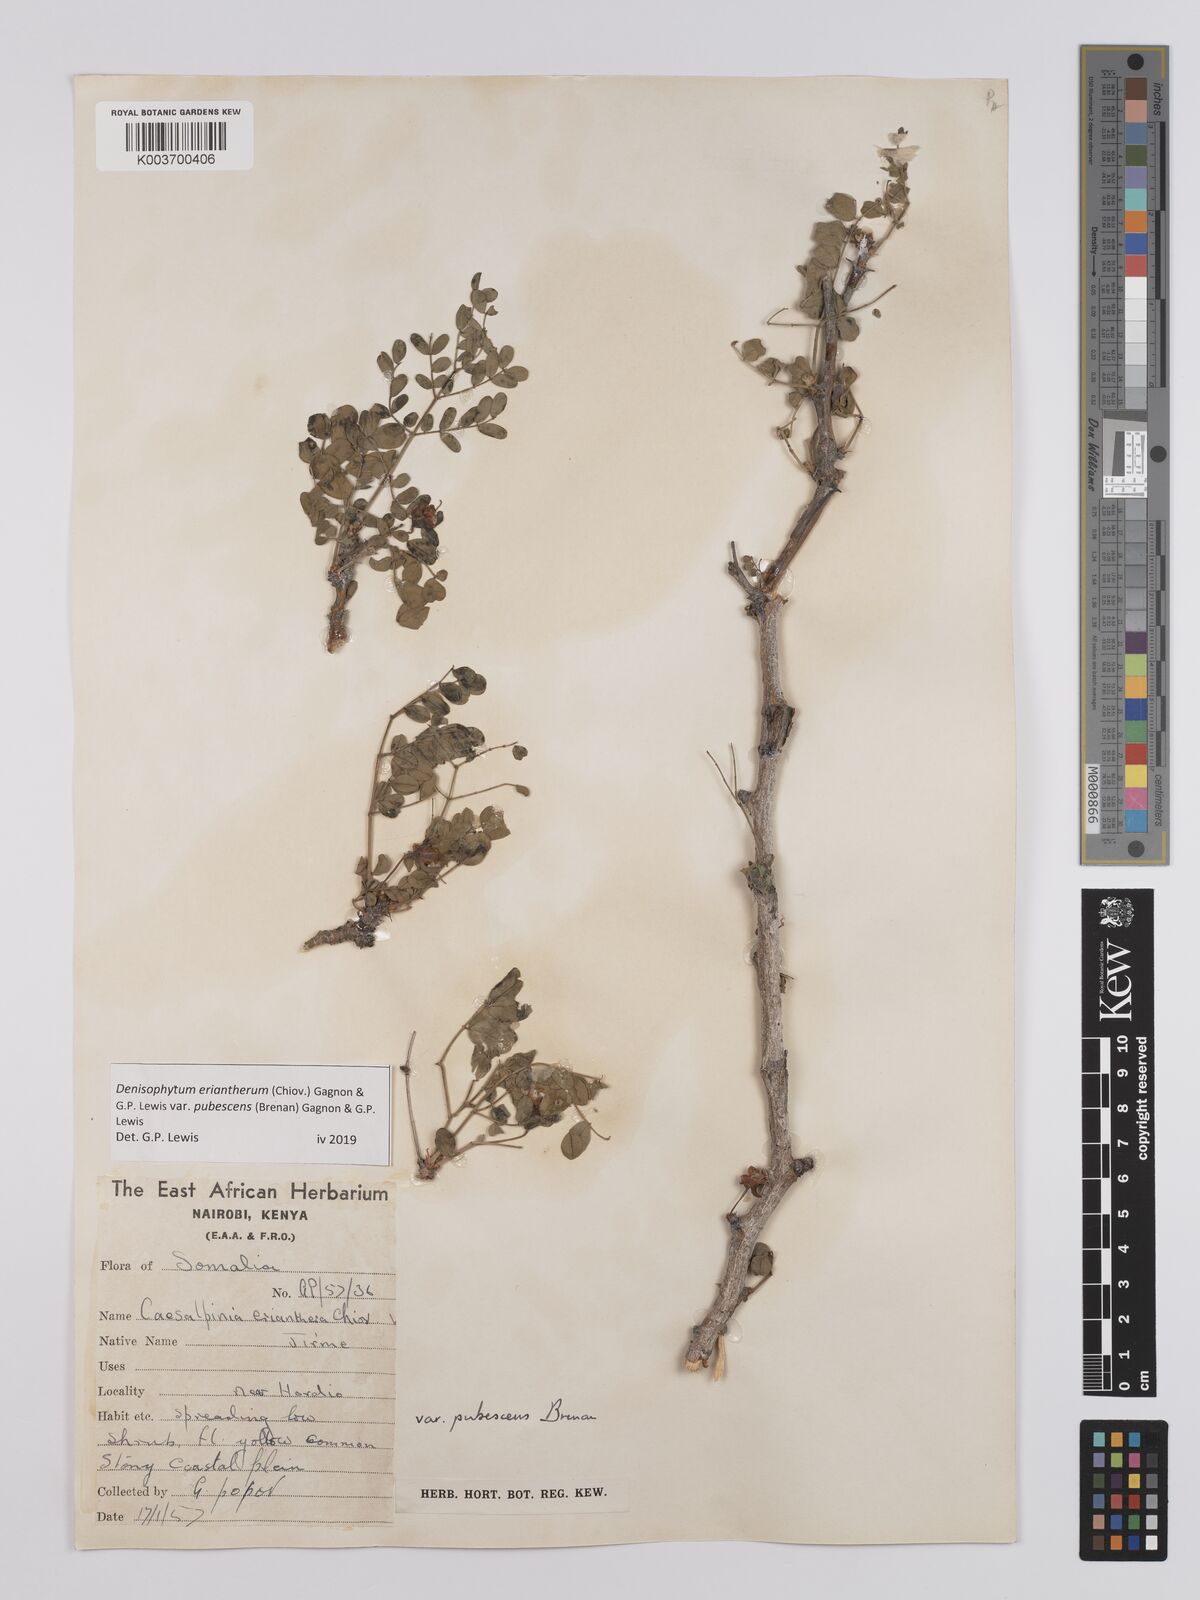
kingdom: Plantae
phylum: Tracheophyta
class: Magnoliopsida
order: Fabales
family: Fabaceae
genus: Denisophytum
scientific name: Denisophytum eriantherum
